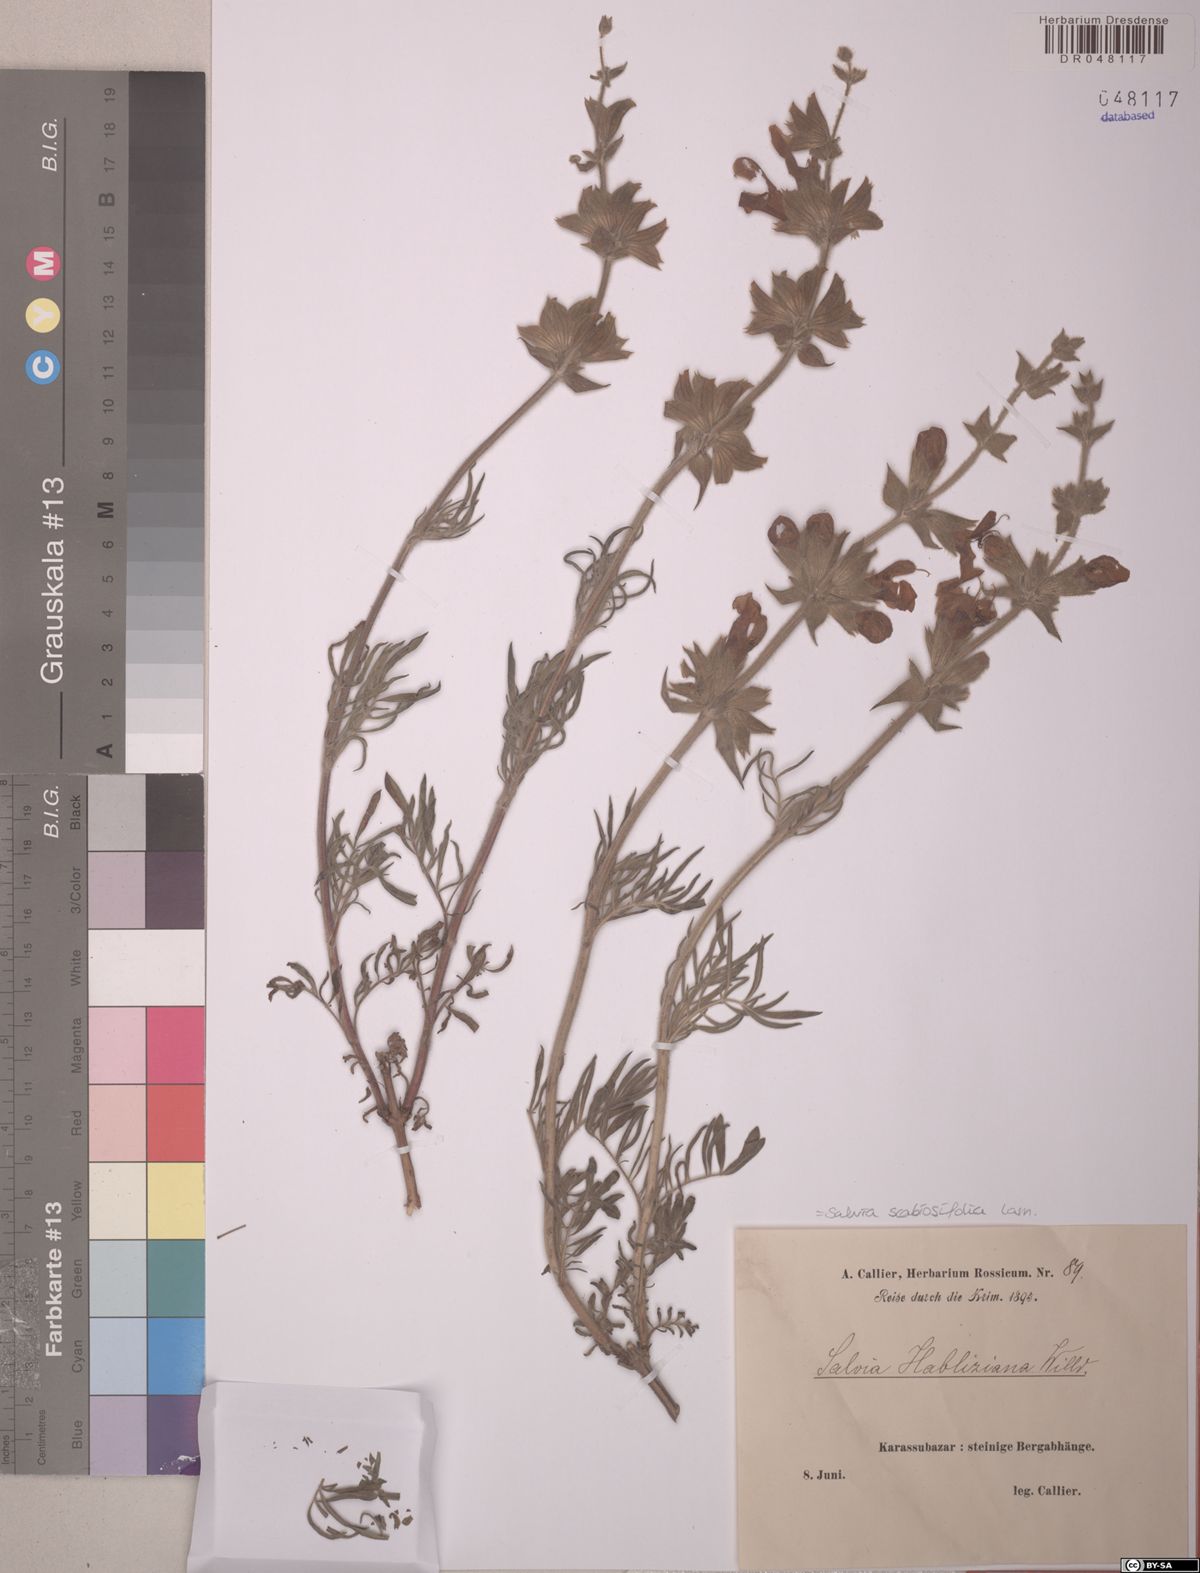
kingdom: Plantae
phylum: Tracheophyta
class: Magnoliopsida
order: Lamiales
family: Lamiaceae
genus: Salvia
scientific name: Salvia scabiosifolia
